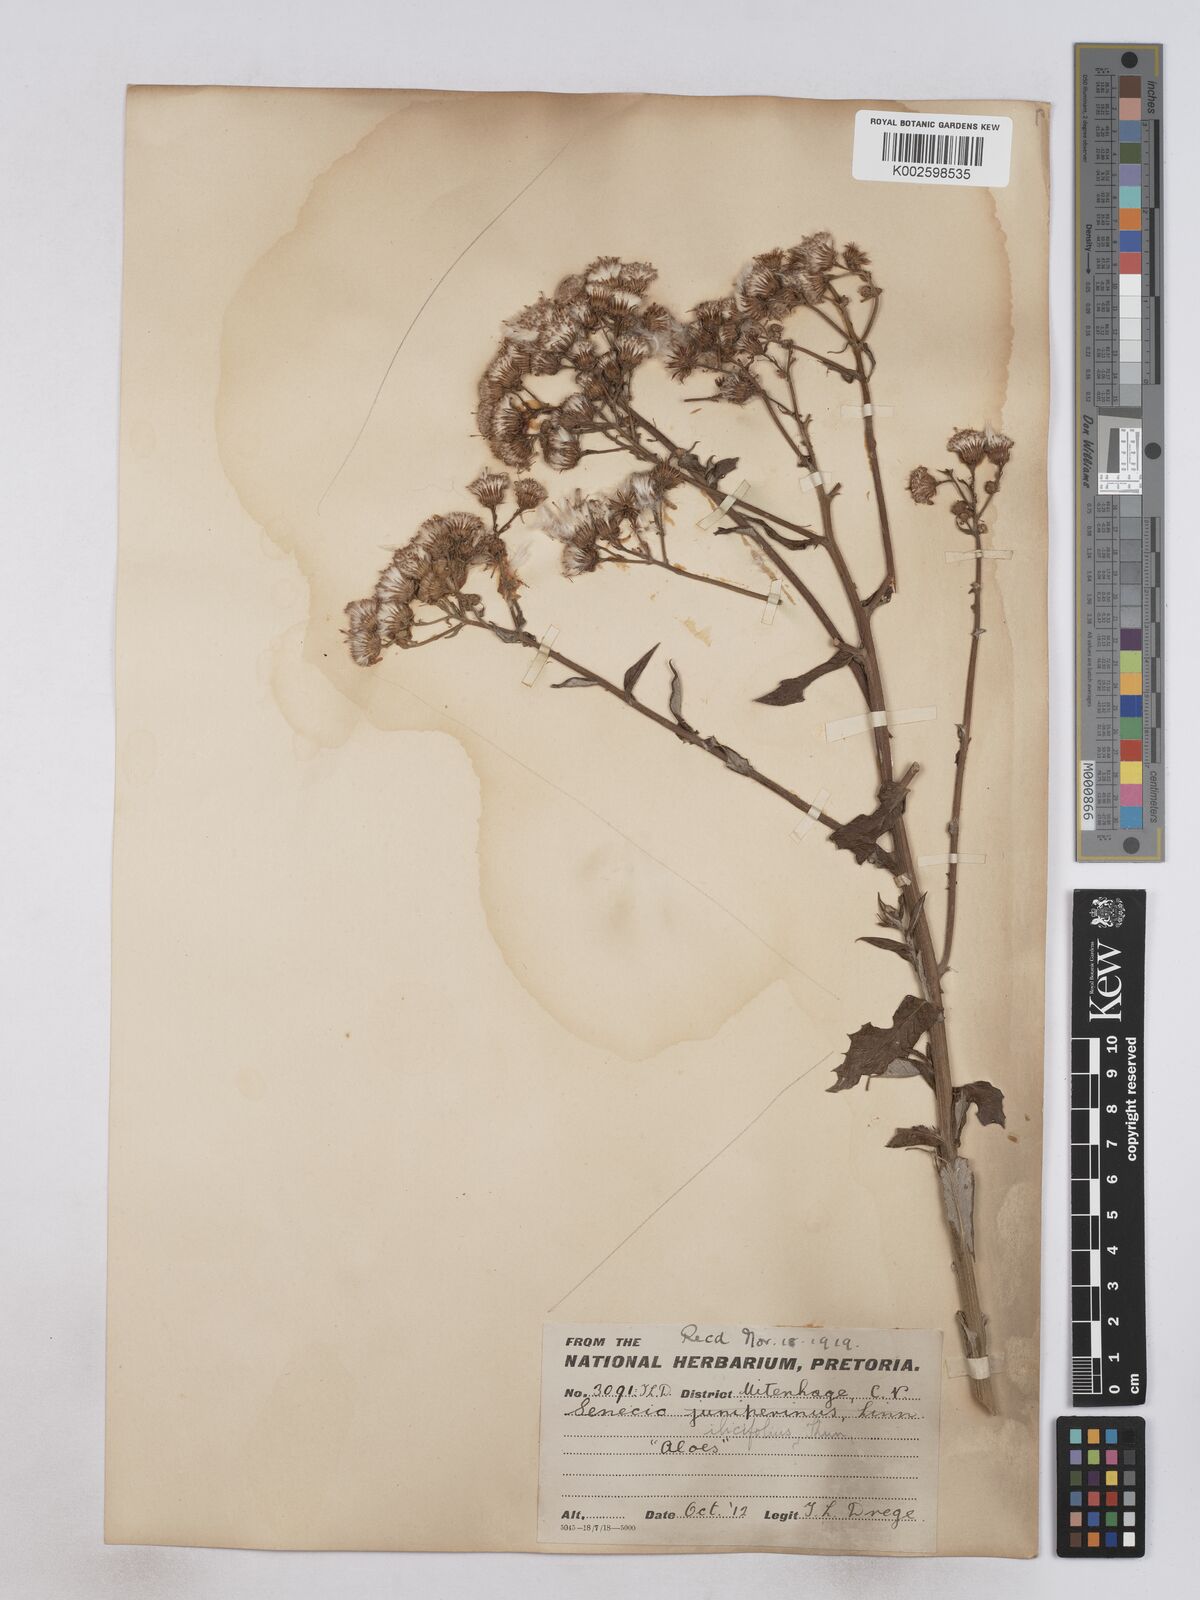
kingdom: Plantae
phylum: Tracheophyta
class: Magnoliopsida
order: Asterales
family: Asteraceae
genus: Senecio
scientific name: Senecio ilicifolius
